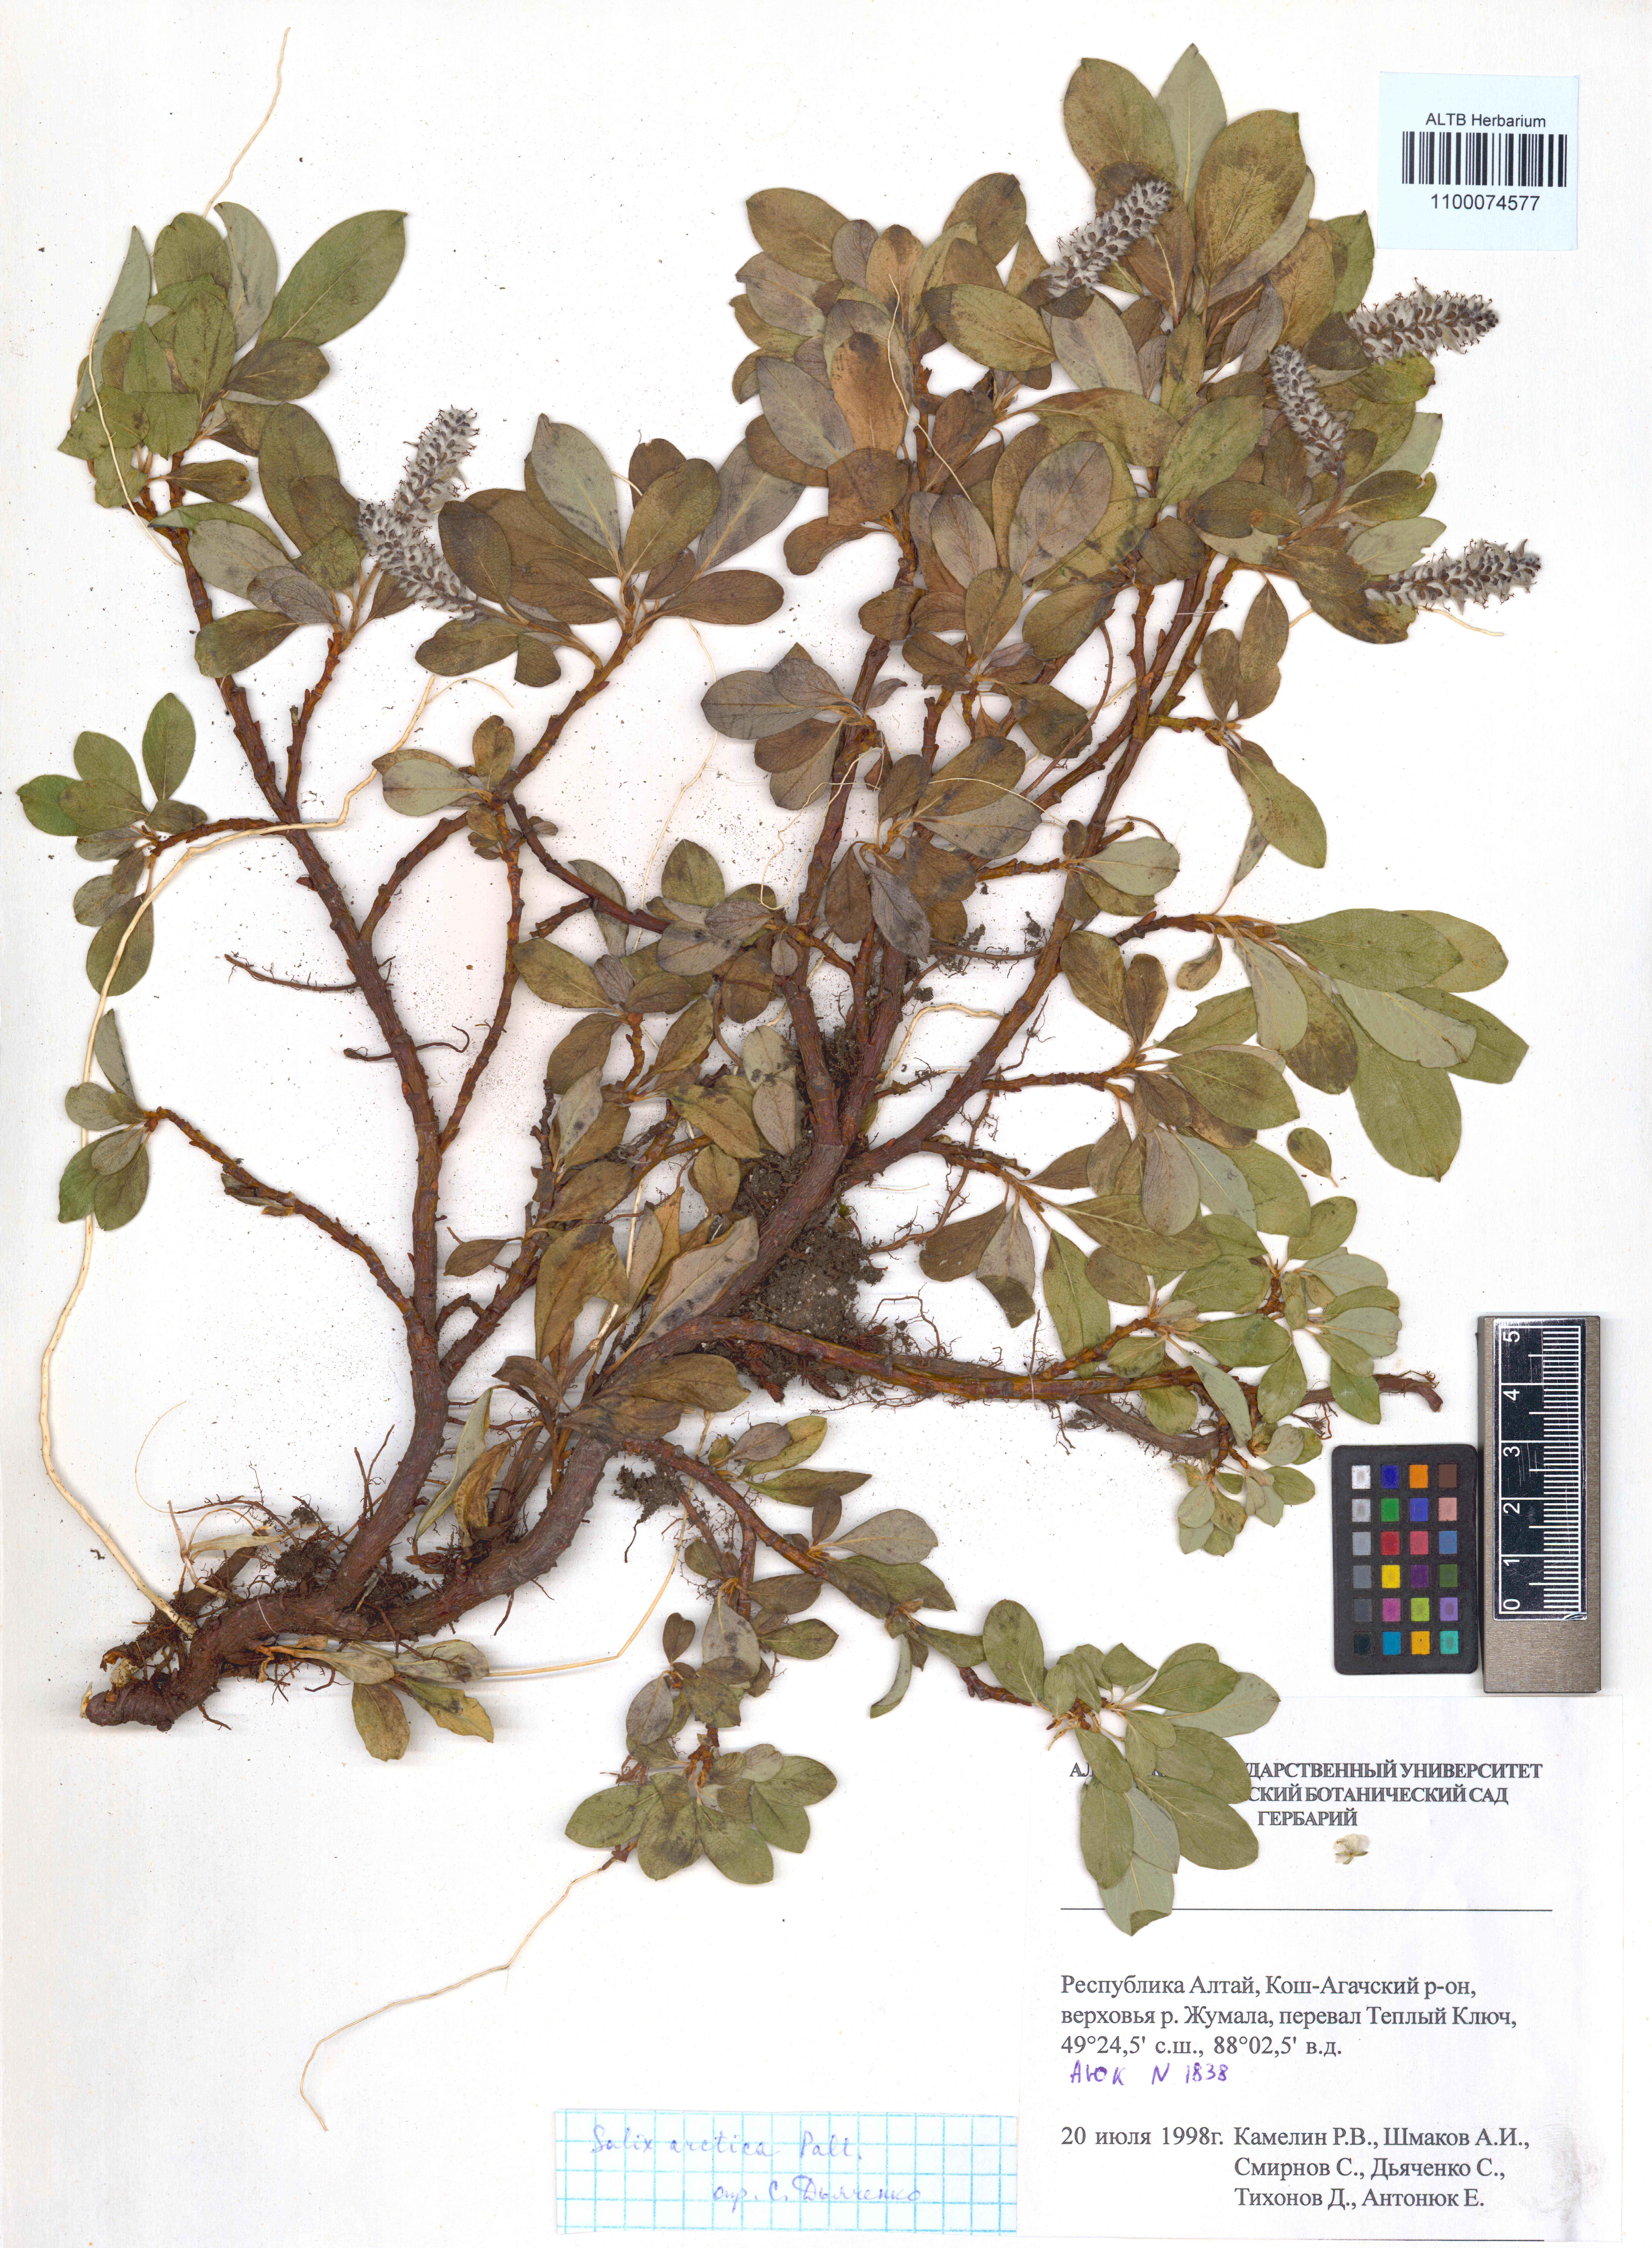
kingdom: Plantae
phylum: Tracheophyta
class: Magnoliopsida
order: Malpighiales
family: Salicaceae
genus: Salix
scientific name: Salix arctica
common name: Arctic willow
